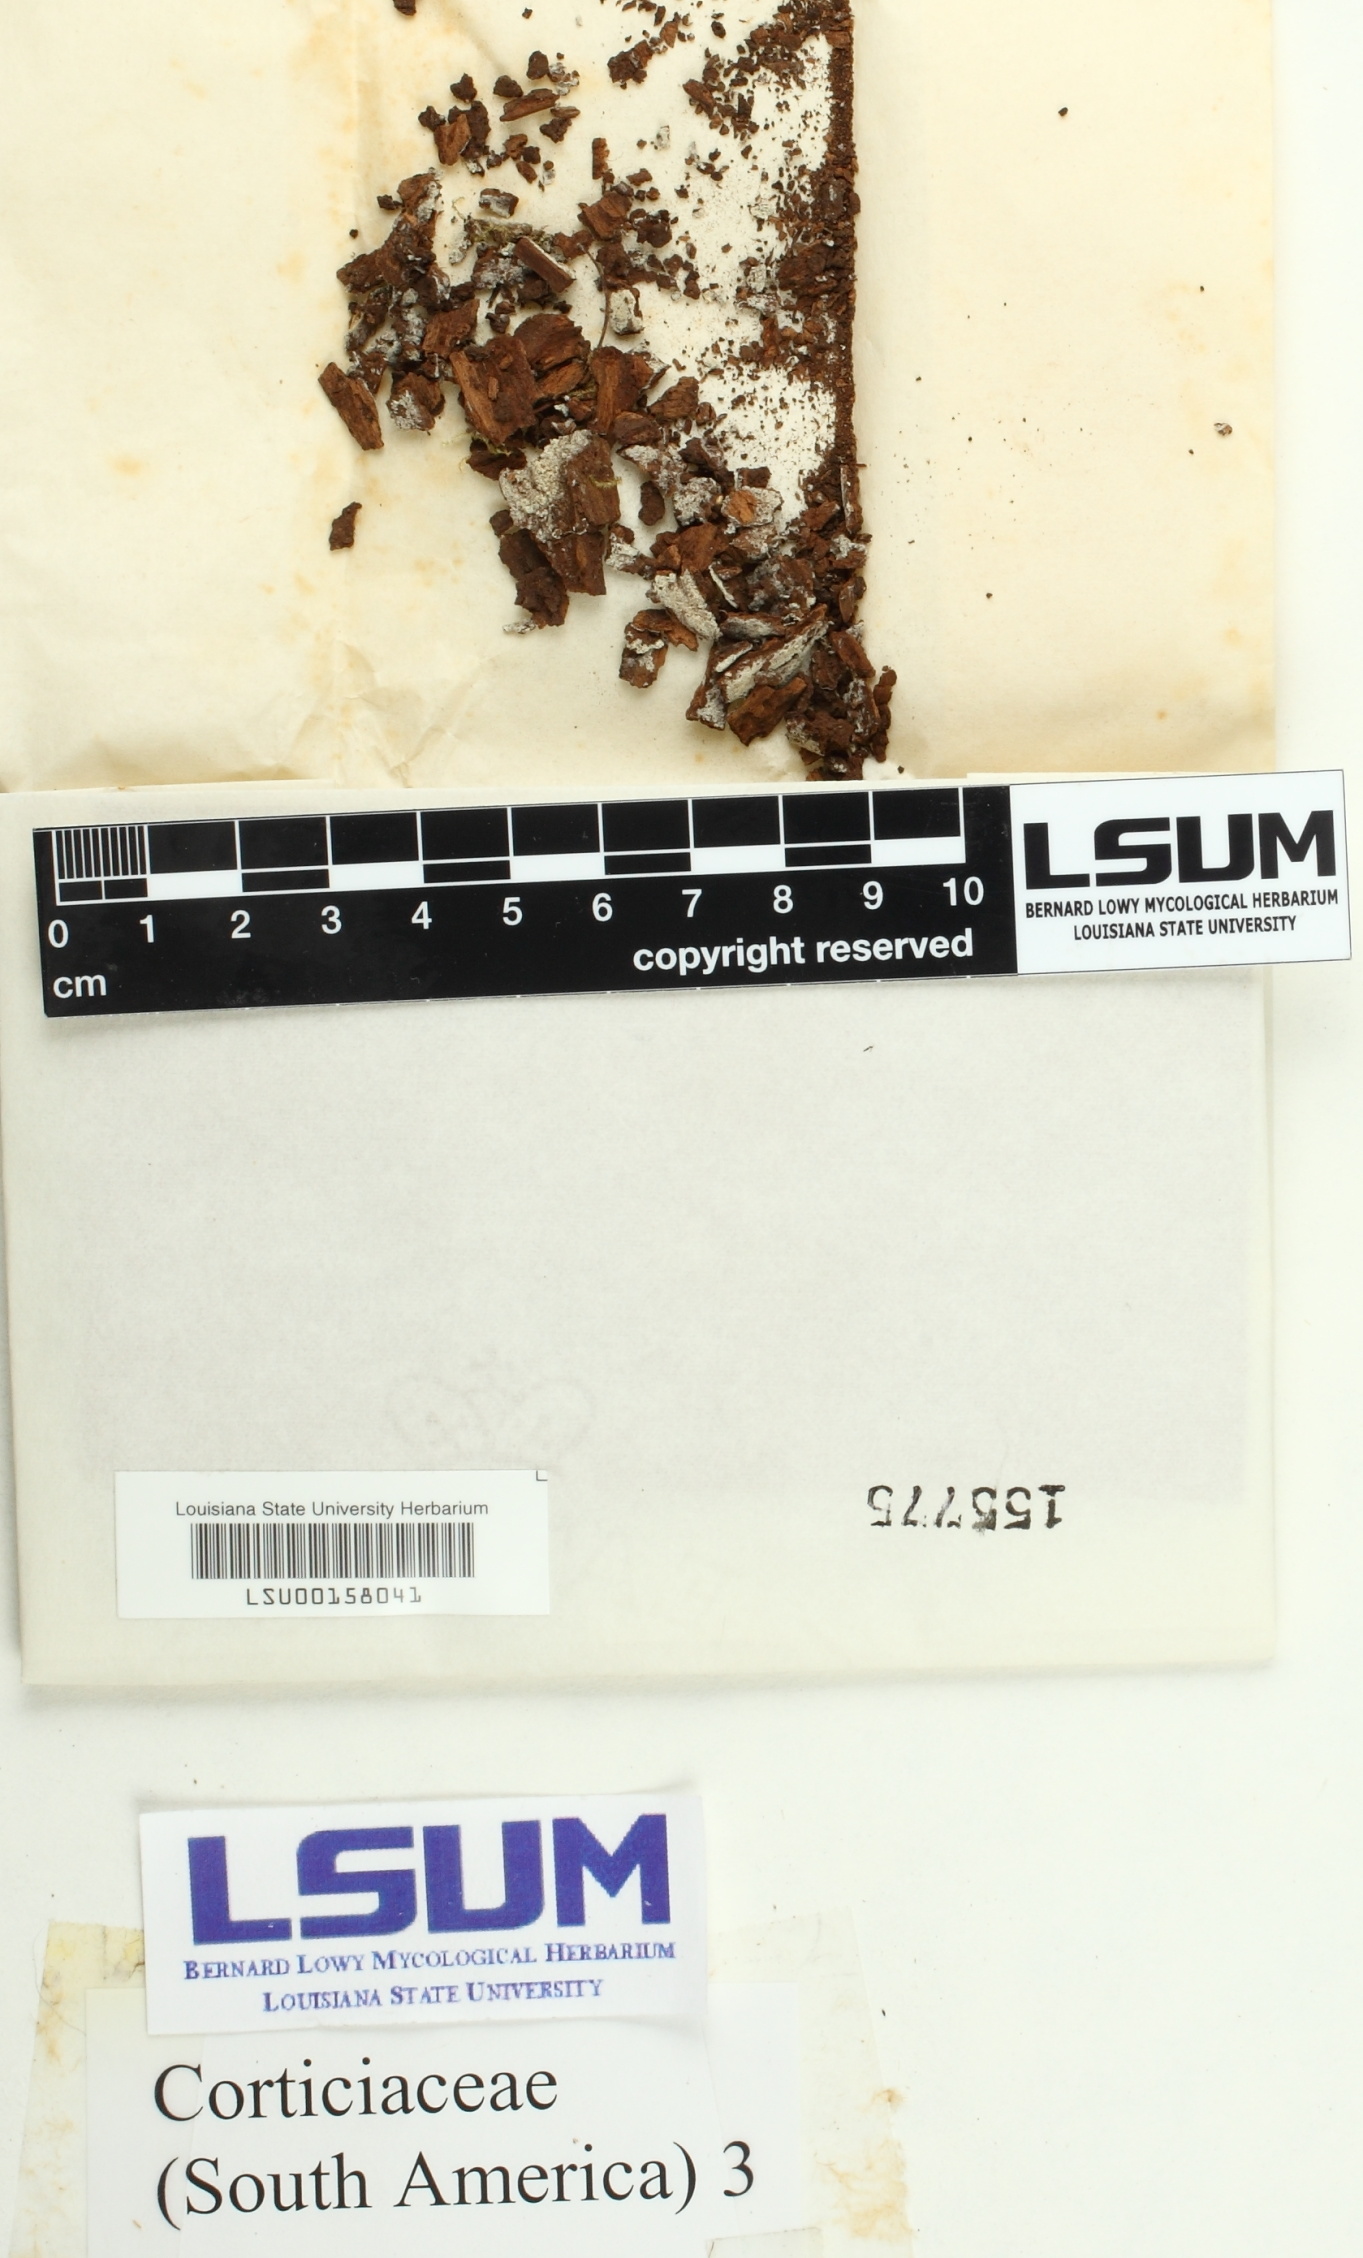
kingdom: Fungi
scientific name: Fungi
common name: Fungi
